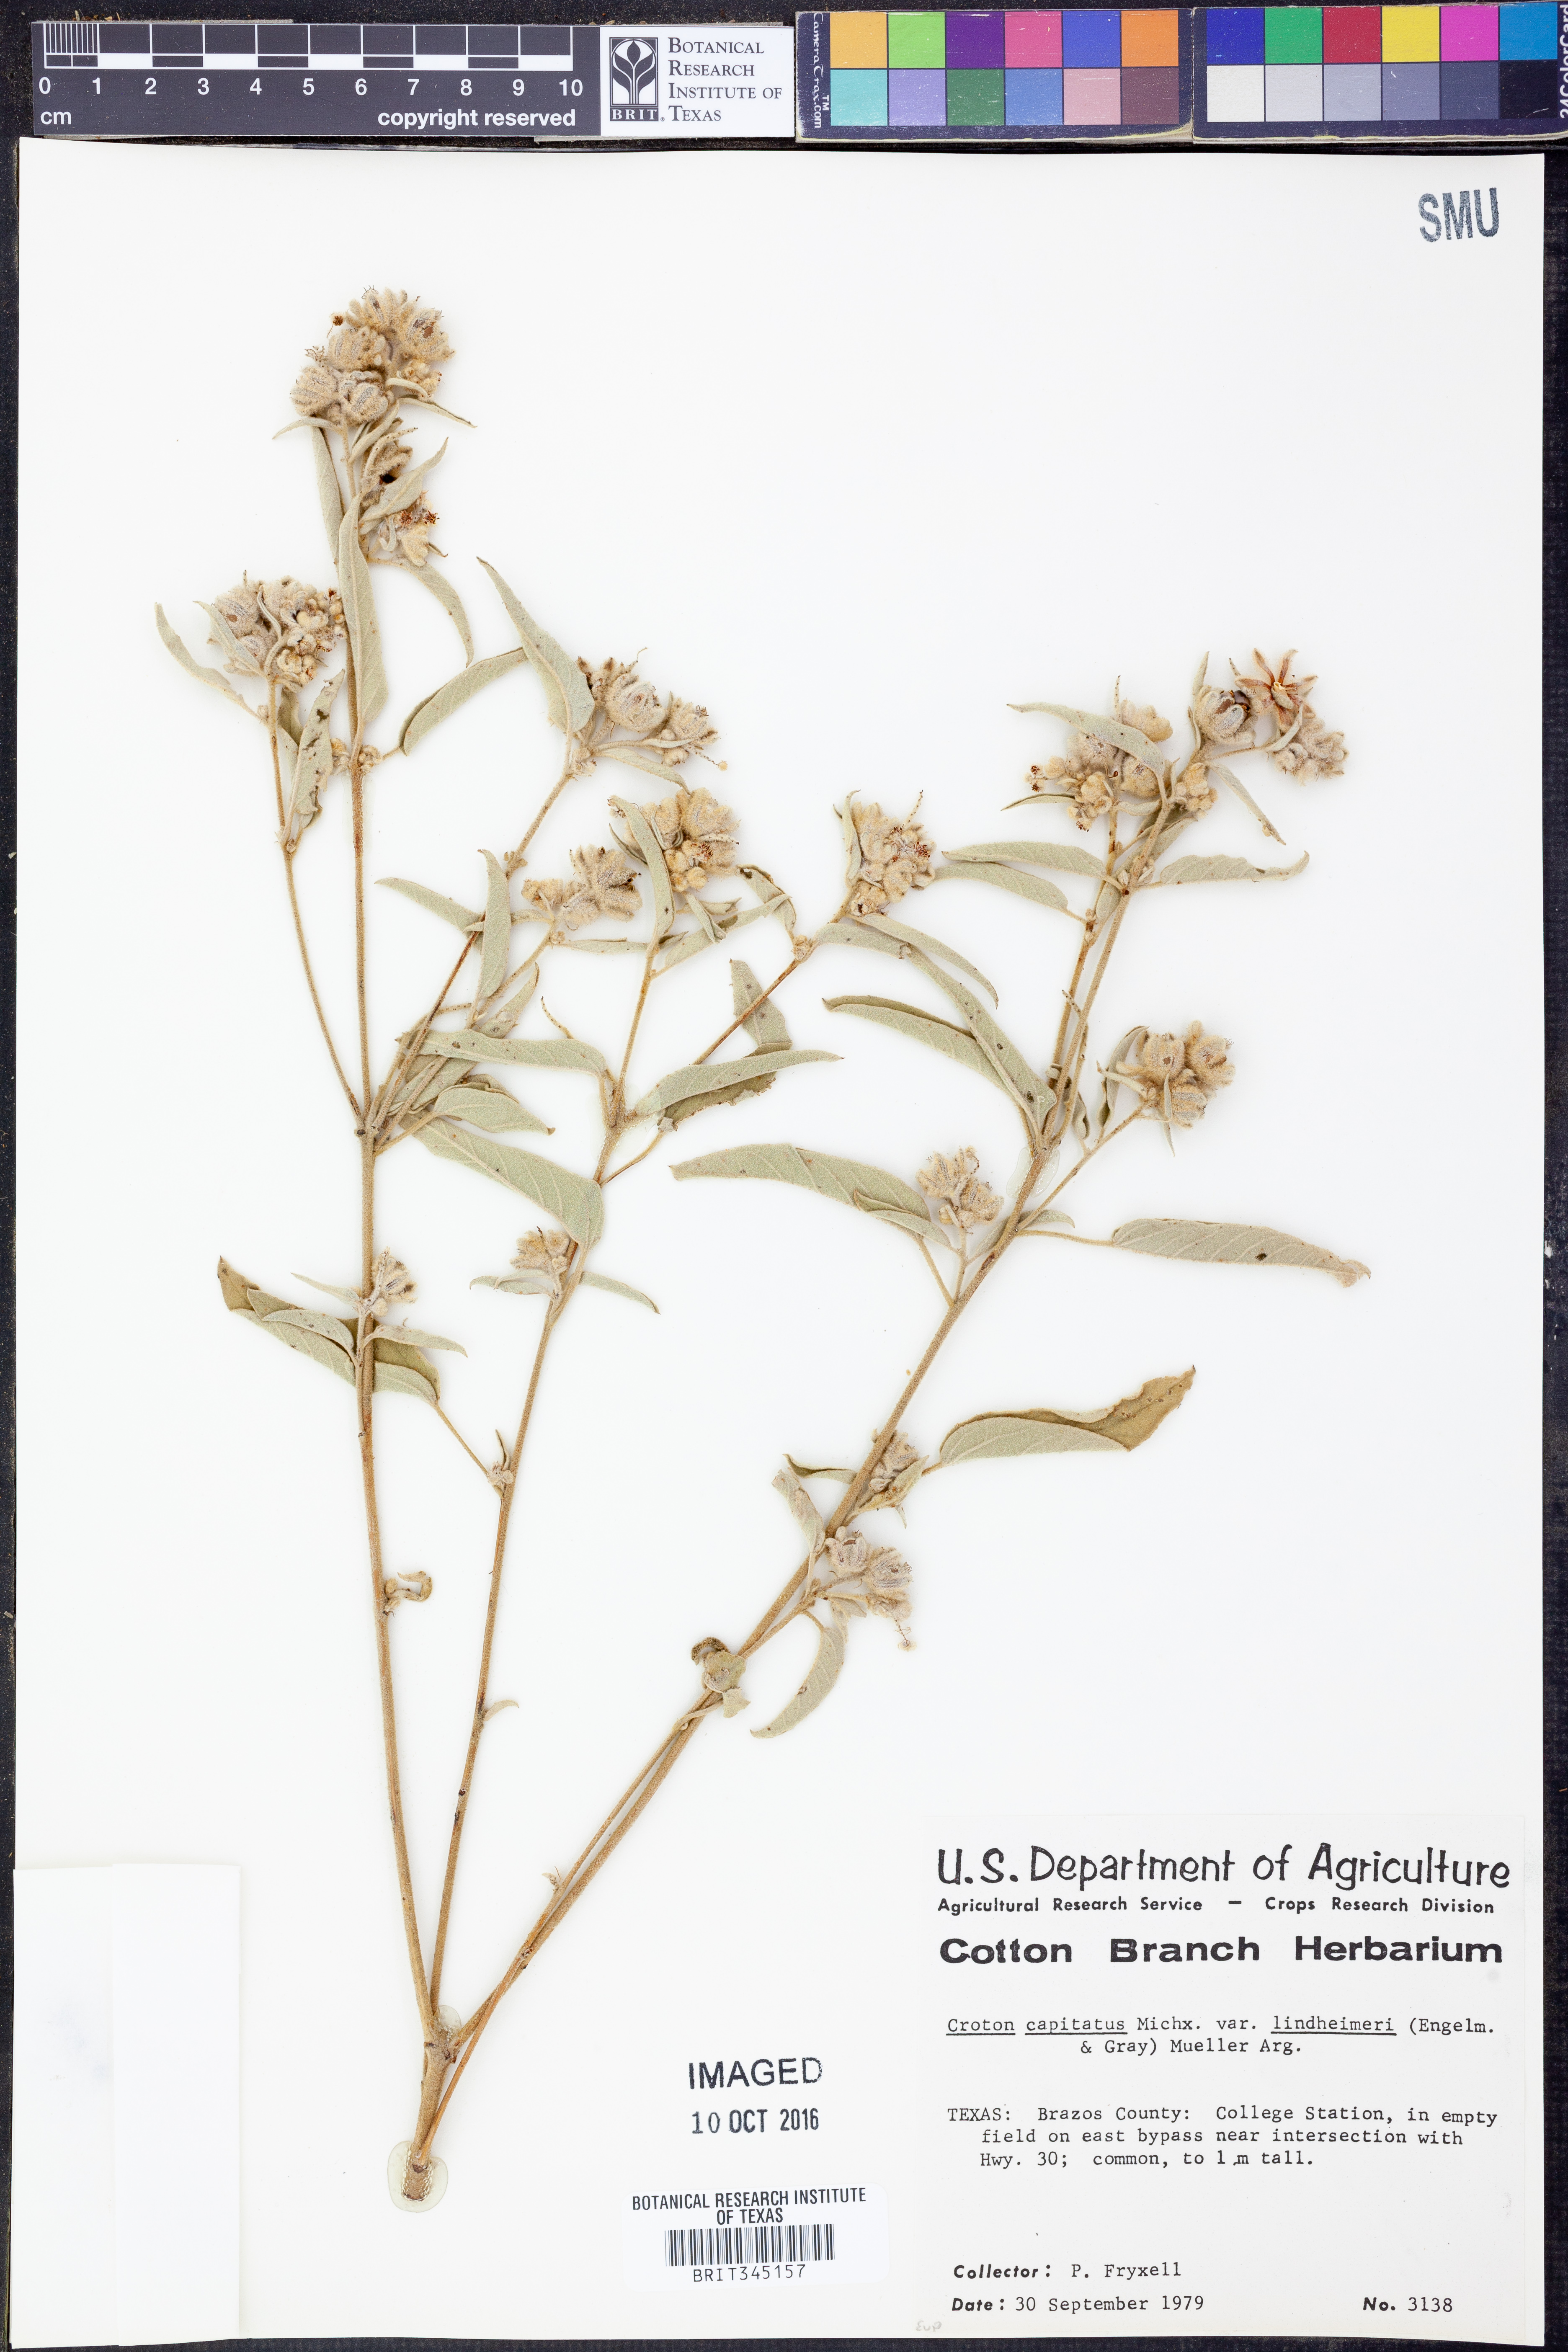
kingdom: Plantae
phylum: Tracheophyta
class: Magnoliopsida
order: Malpighiales
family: Euphorbiaceae
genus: Croton
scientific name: Croton lindheimeri
